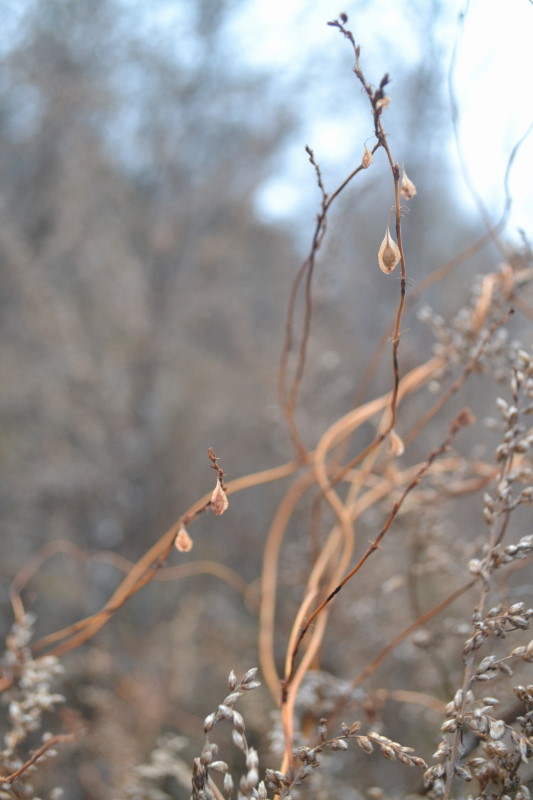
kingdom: Plantae
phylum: Tracheophyta
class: Magnoliopsida
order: Caryophyllales
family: Polygonaceae
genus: Fallopia
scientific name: Fallopia convolvulus
